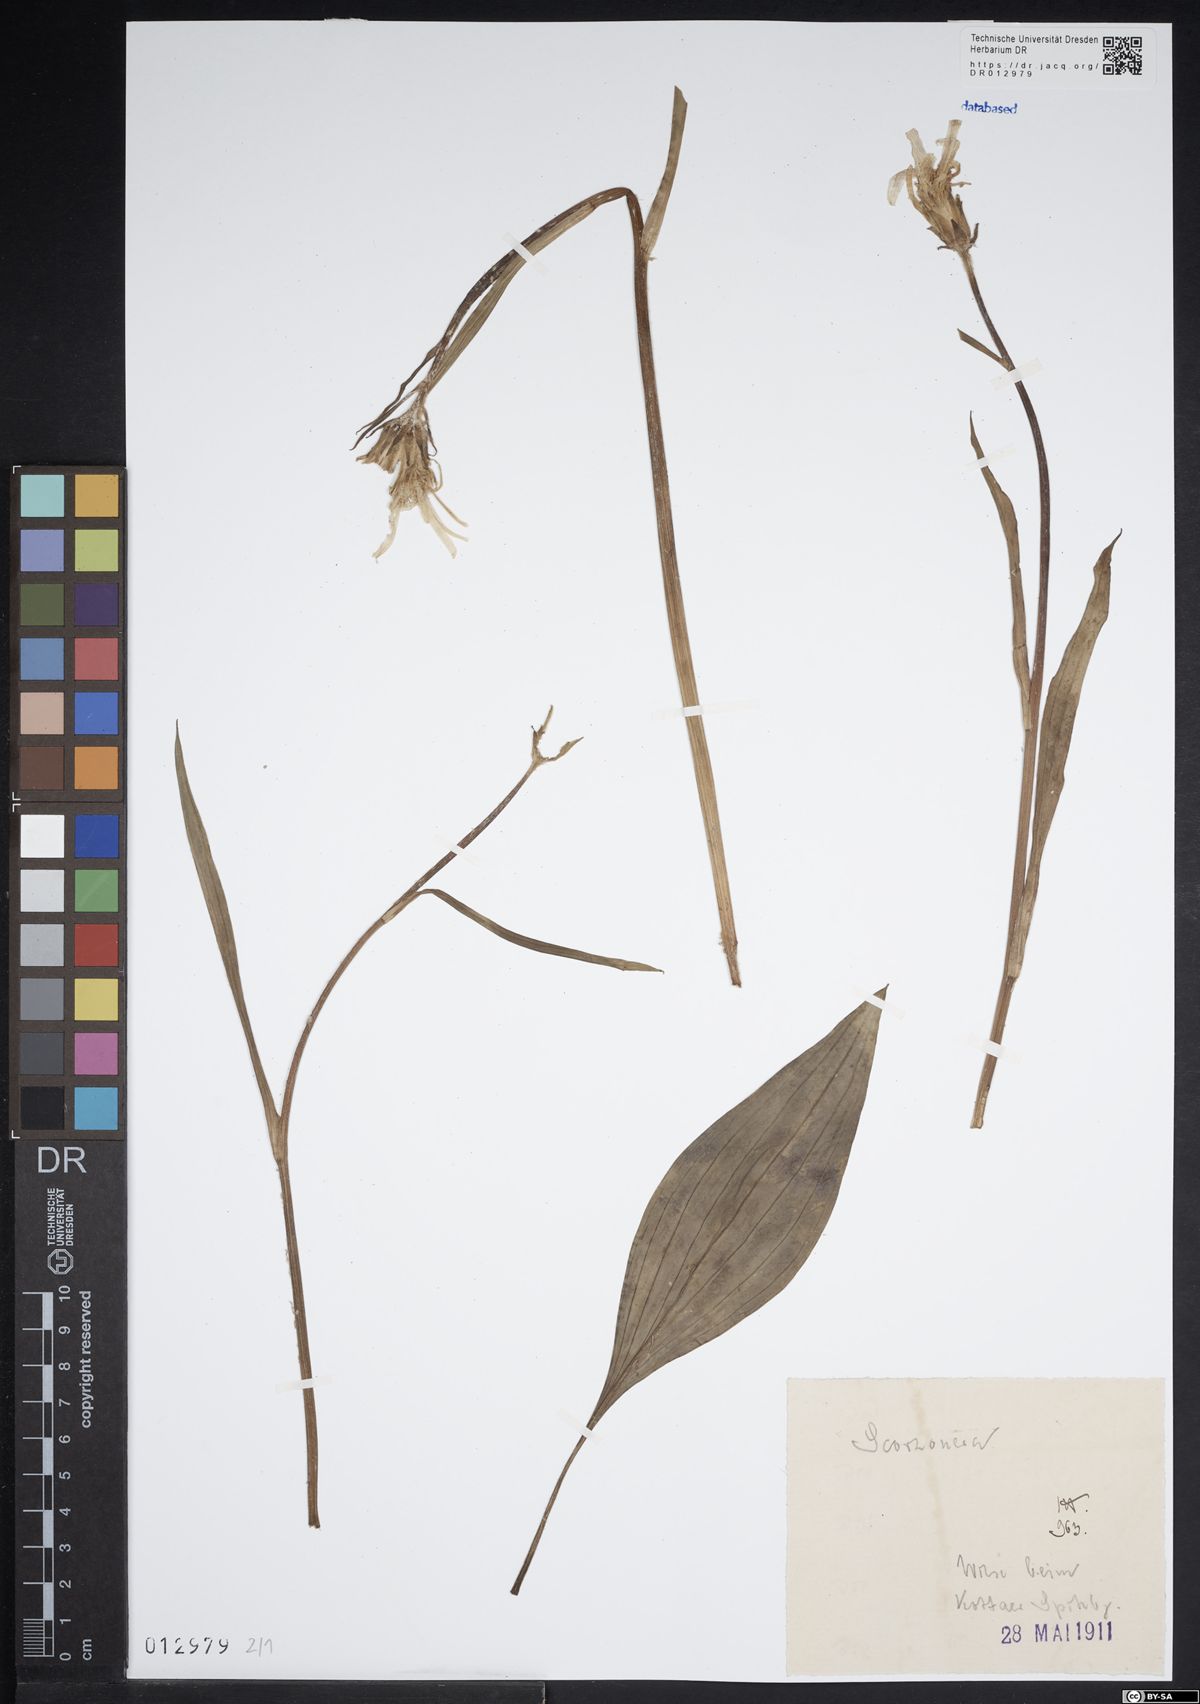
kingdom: Plantae
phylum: Tracheophyta
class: Magnoliopsida
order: Asterales
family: Asteraceae
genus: Scorzonera
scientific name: Scorzonera
